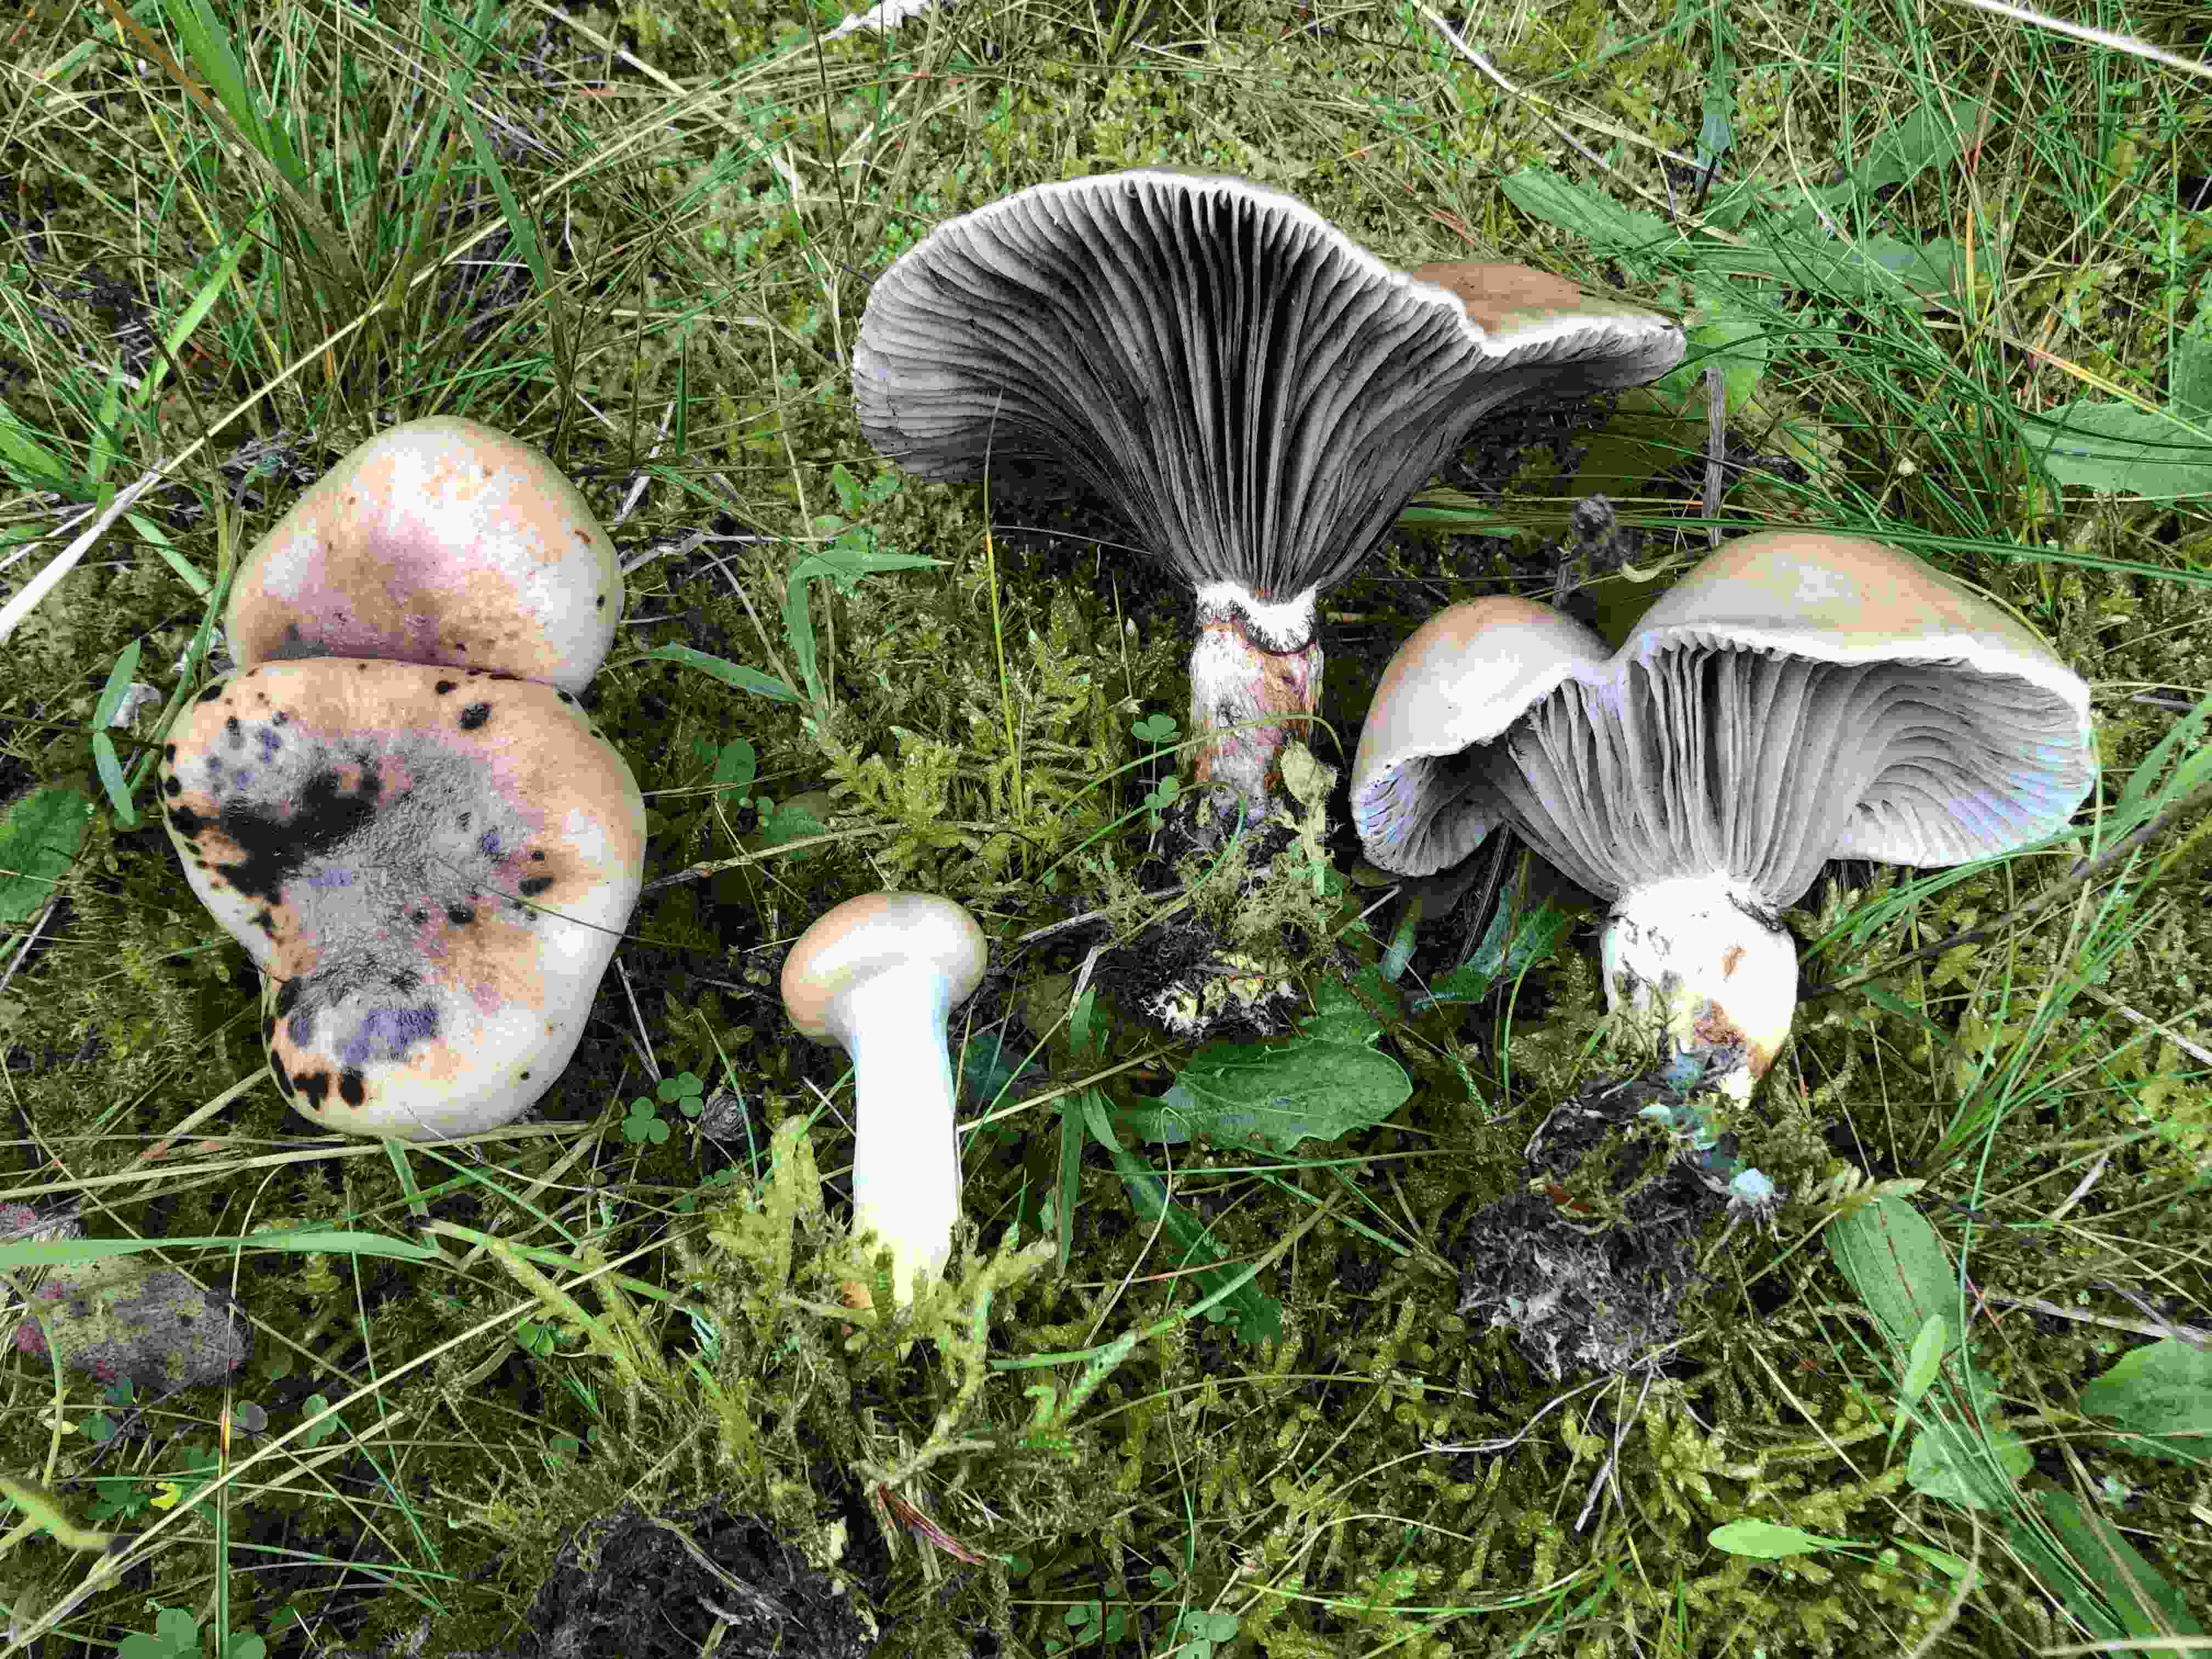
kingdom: Fungi
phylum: Basidiomycota
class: Agaricomycetes
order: Boletales
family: Gomphidiaceae
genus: Gomphidius
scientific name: Gomphidius glutinosus
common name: grå slimslør
